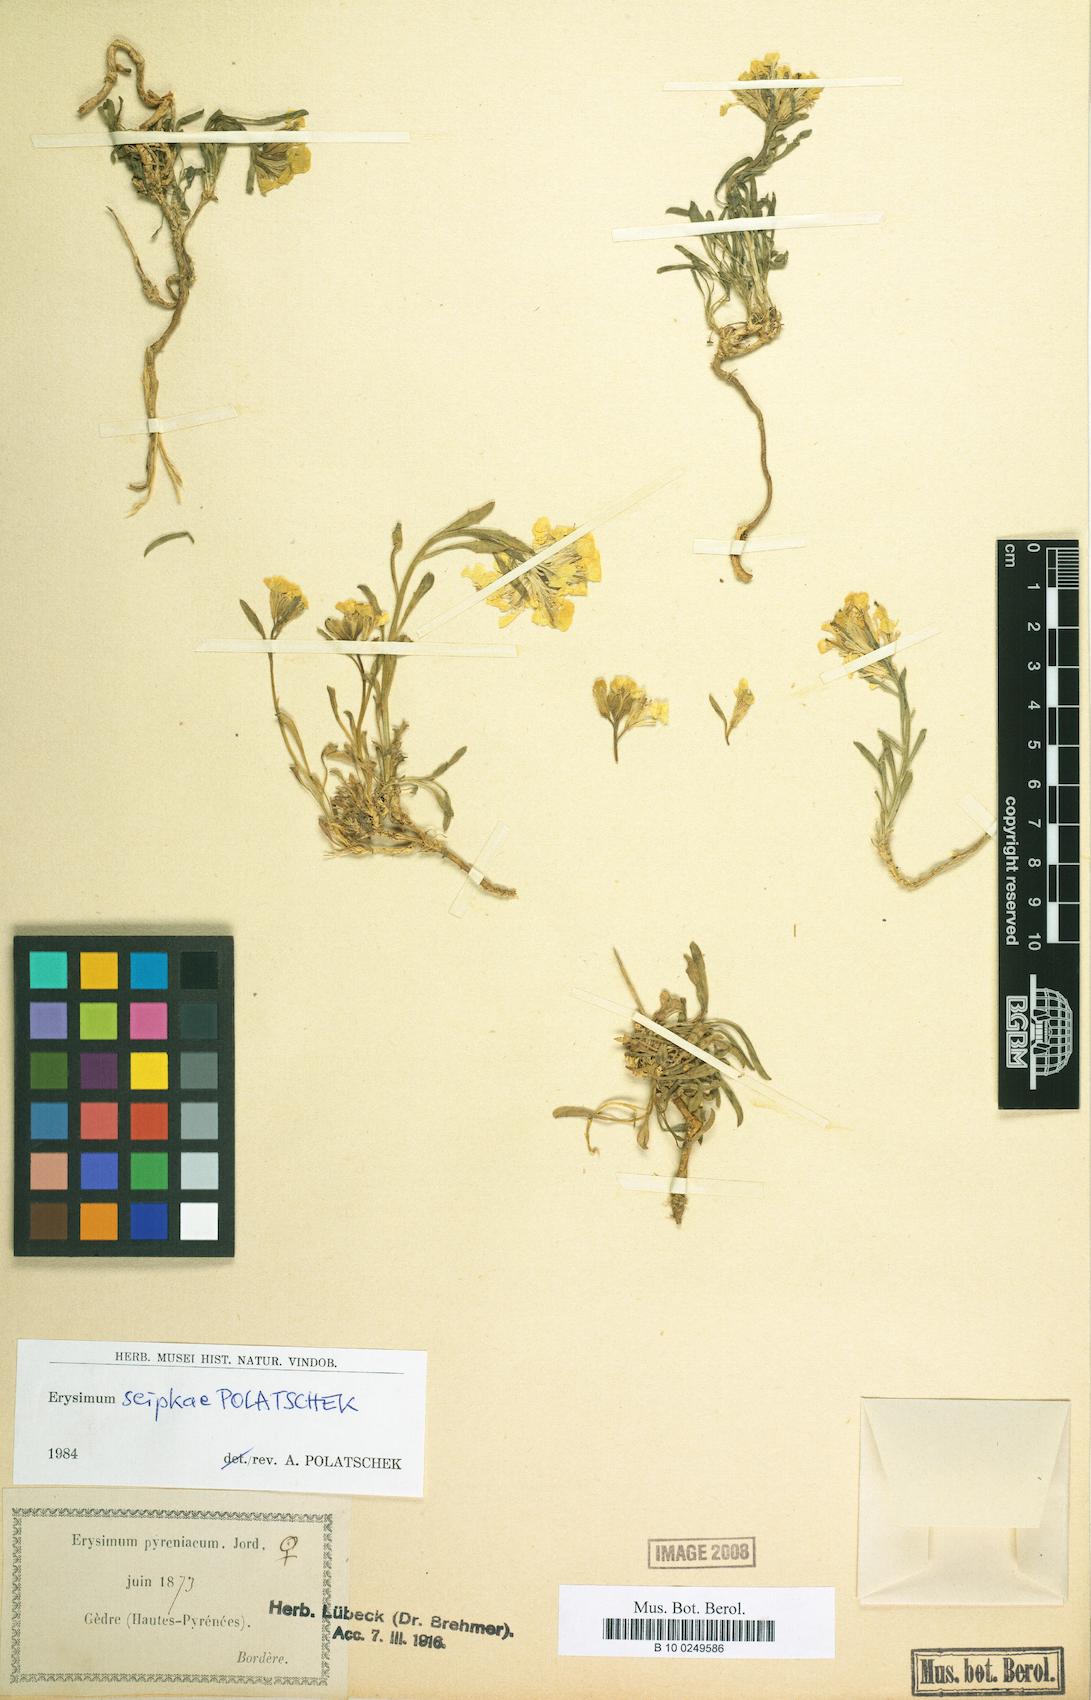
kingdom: Plantae
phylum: Tracheophyta
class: Magnoliopsida
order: Brassicales
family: Brassicaceae
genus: Erysimum
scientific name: Erysimum seipkae
